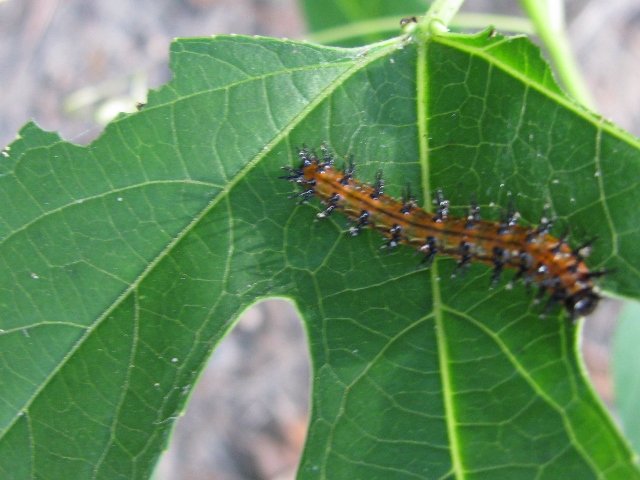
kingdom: Animalia
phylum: Arthropoda
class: Insecta
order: Lepidoptera
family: Nymphalidae
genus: Dione
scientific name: Dione vanillae
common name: Gulf Fritillary
